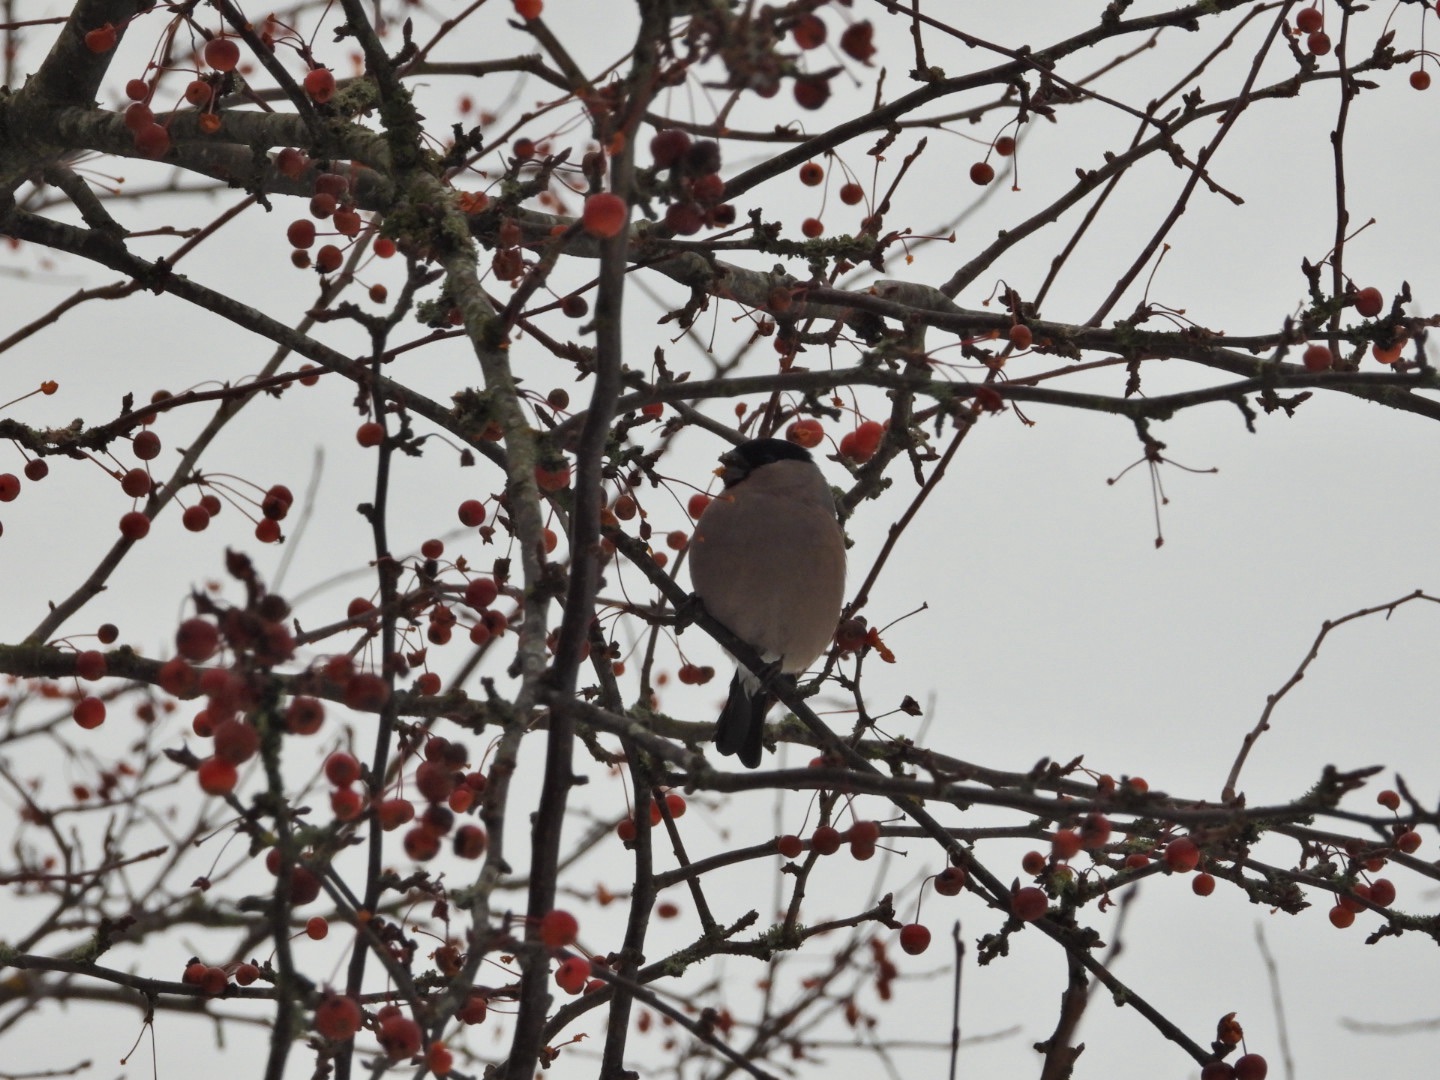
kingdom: Animalia
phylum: Chordata
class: Aves
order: Passeriformes
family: Fringillidae
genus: Pyrrhula
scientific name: Pyrrhula pyrrhula
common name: Dompap
